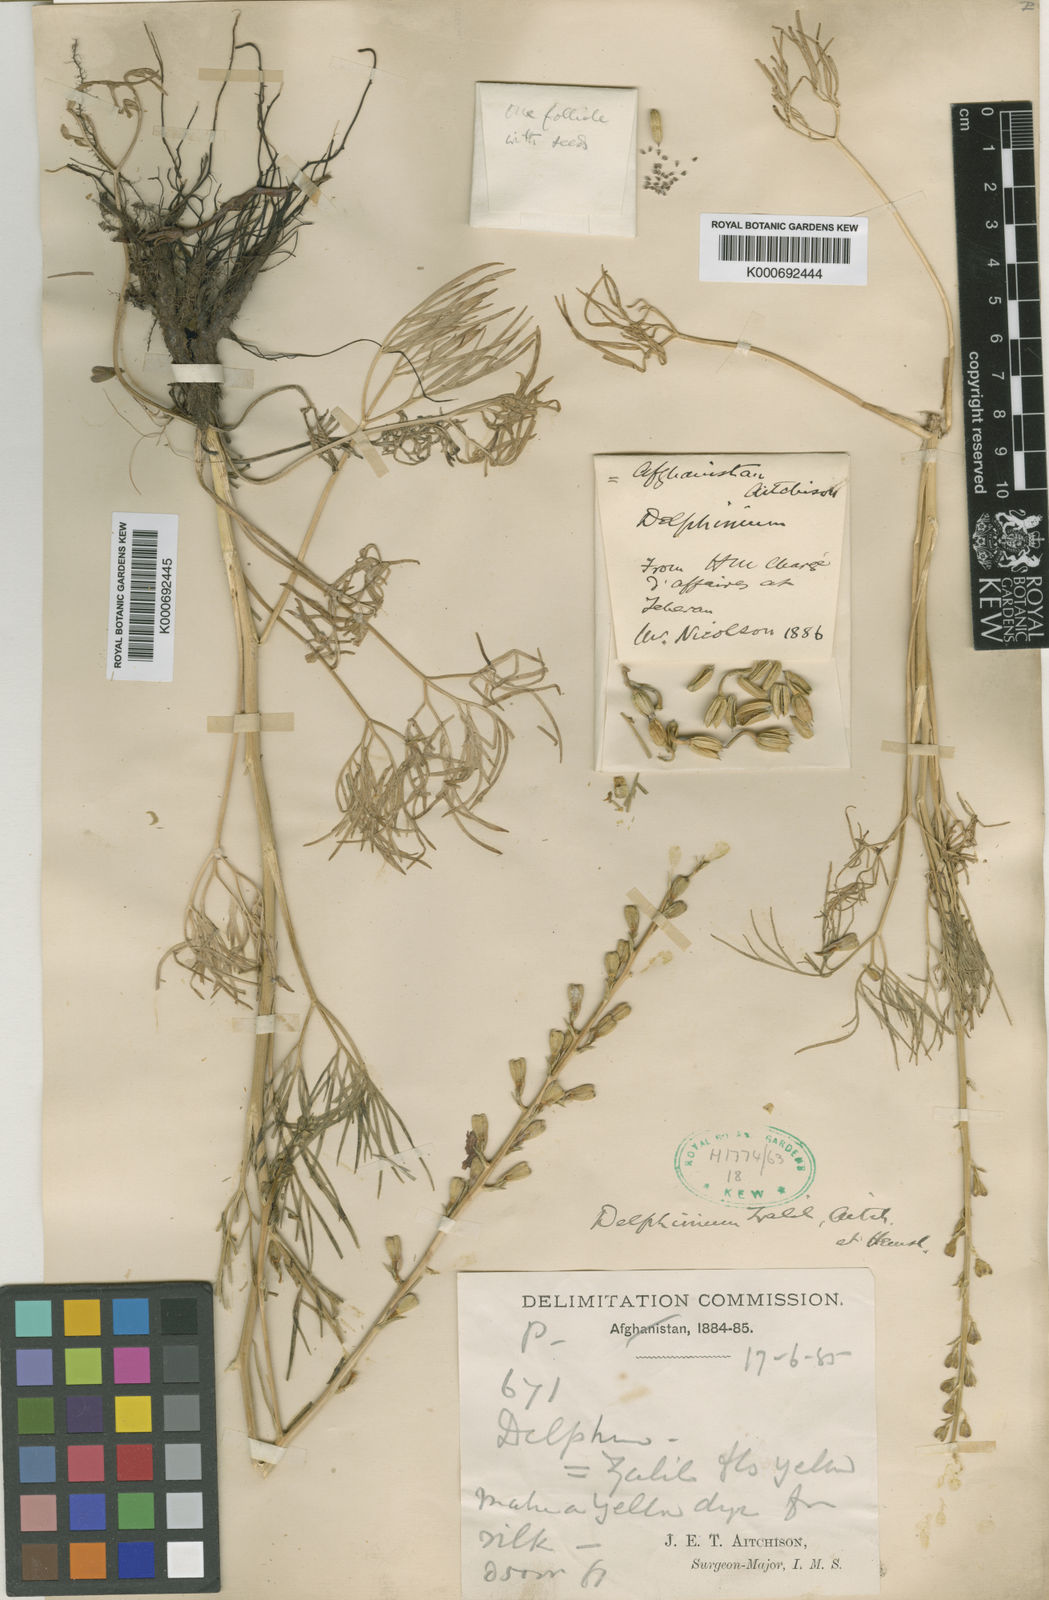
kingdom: Plantae
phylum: Tracheophyta
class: Magnoliopsida
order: Ranunculales
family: Ranunculaceae
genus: Delphinium
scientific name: Delphinium semibarbatum
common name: Zalil
